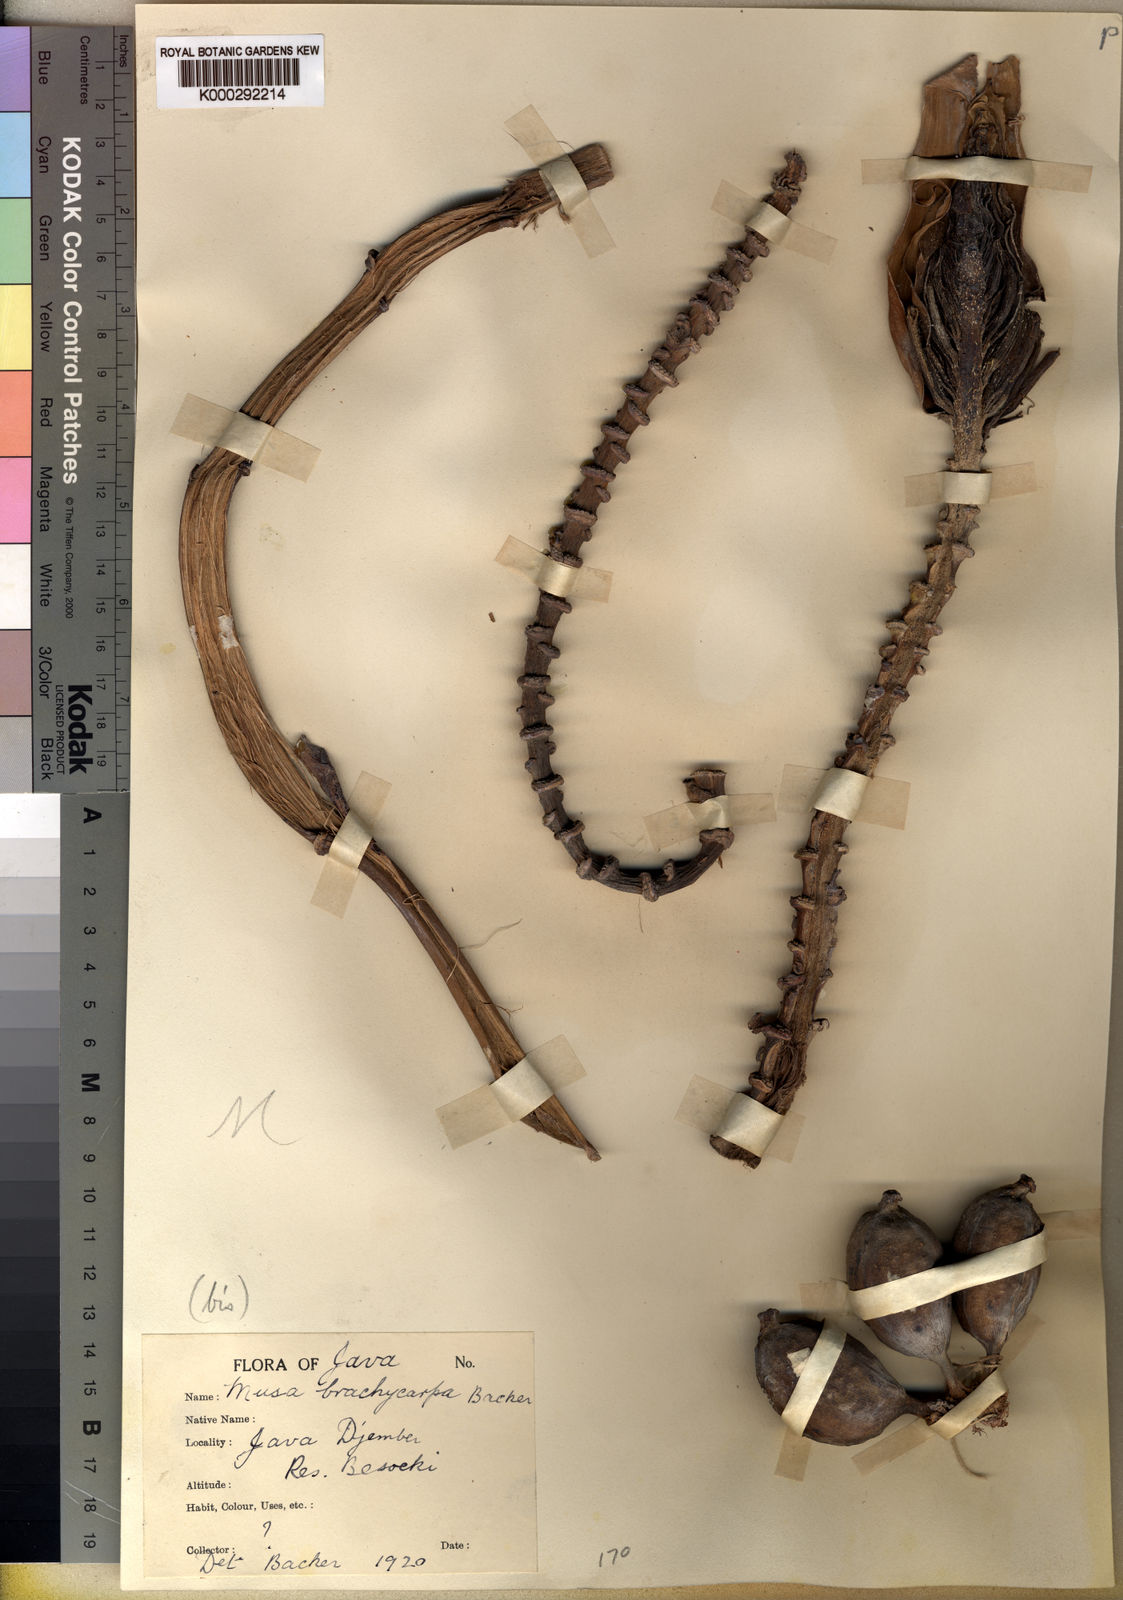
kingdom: Plantae
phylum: Tracheophyta
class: Liliopsida
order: Zingiberales
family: Musaceae
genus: Musa
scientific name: Musa borneensis
